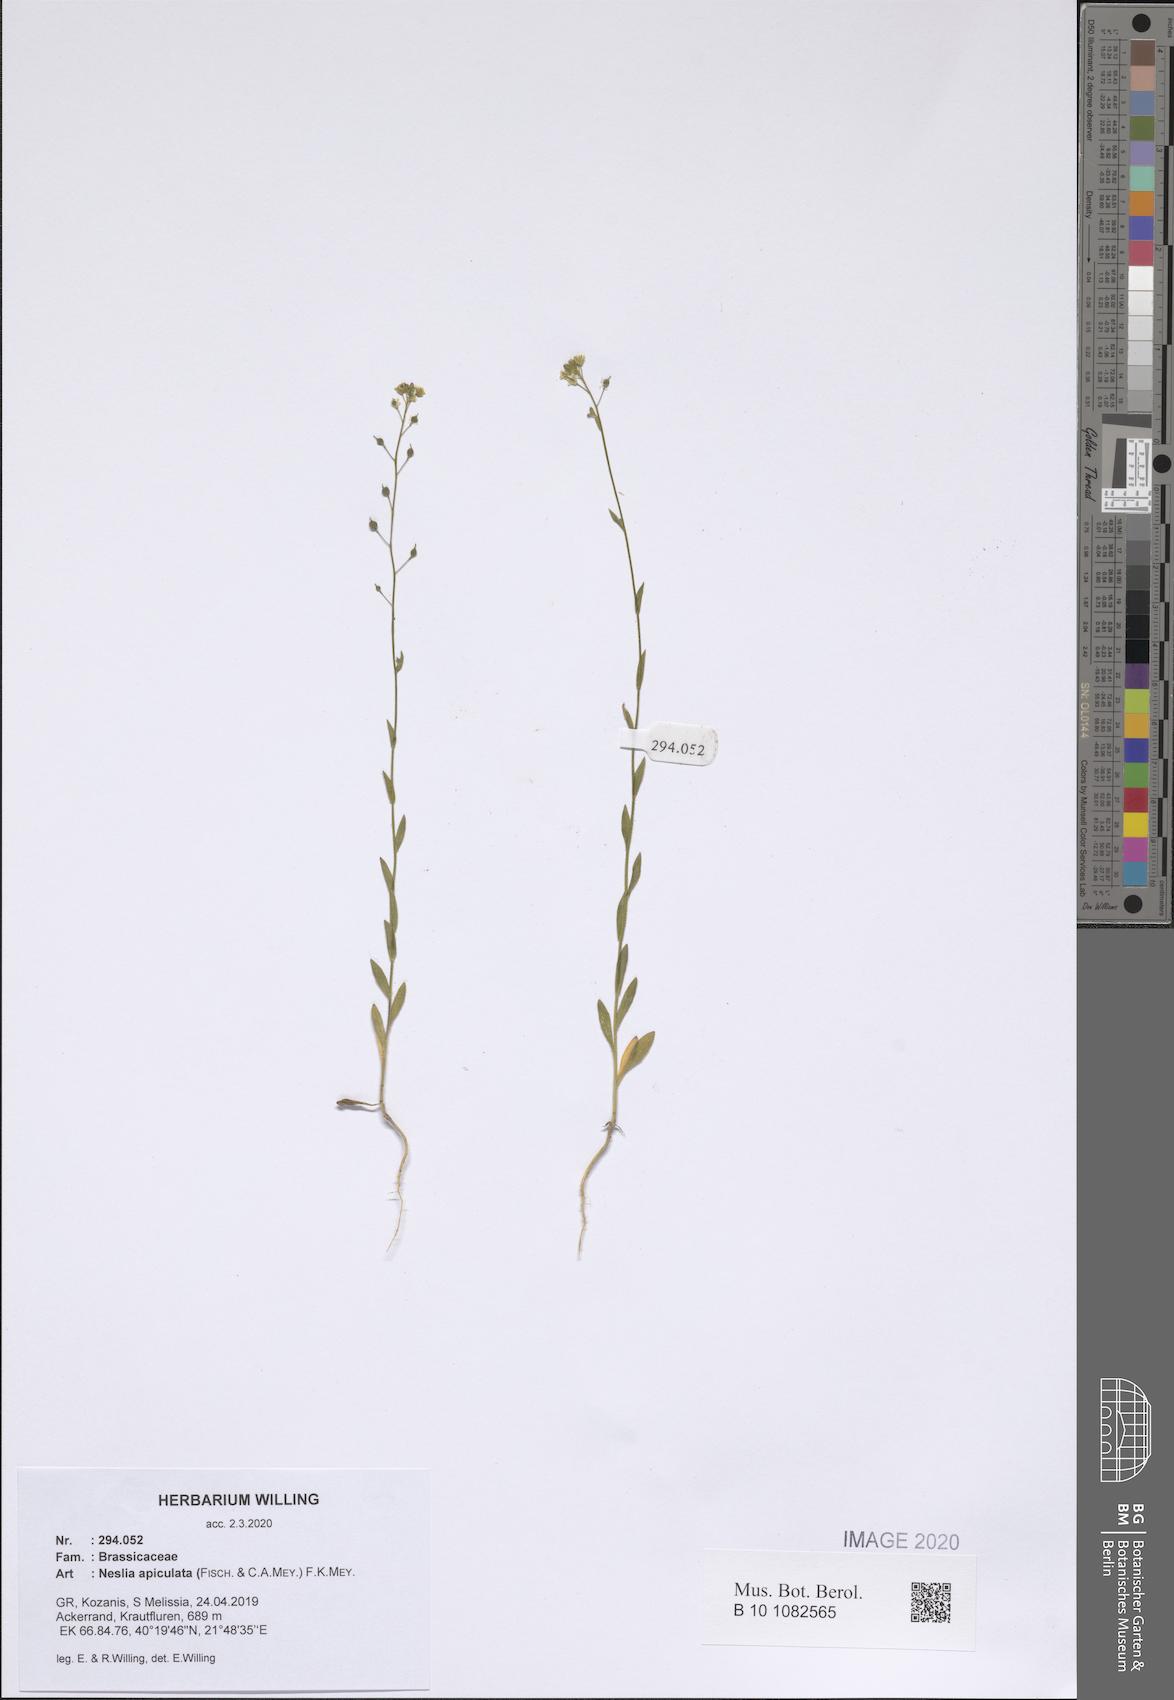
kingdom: Plantae
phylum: Tracheophyta
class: Magnoliopsida
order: Brassicales
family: Brassicaceae
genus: Neslia
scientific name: Neslia paniculata
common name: Ball mustard
